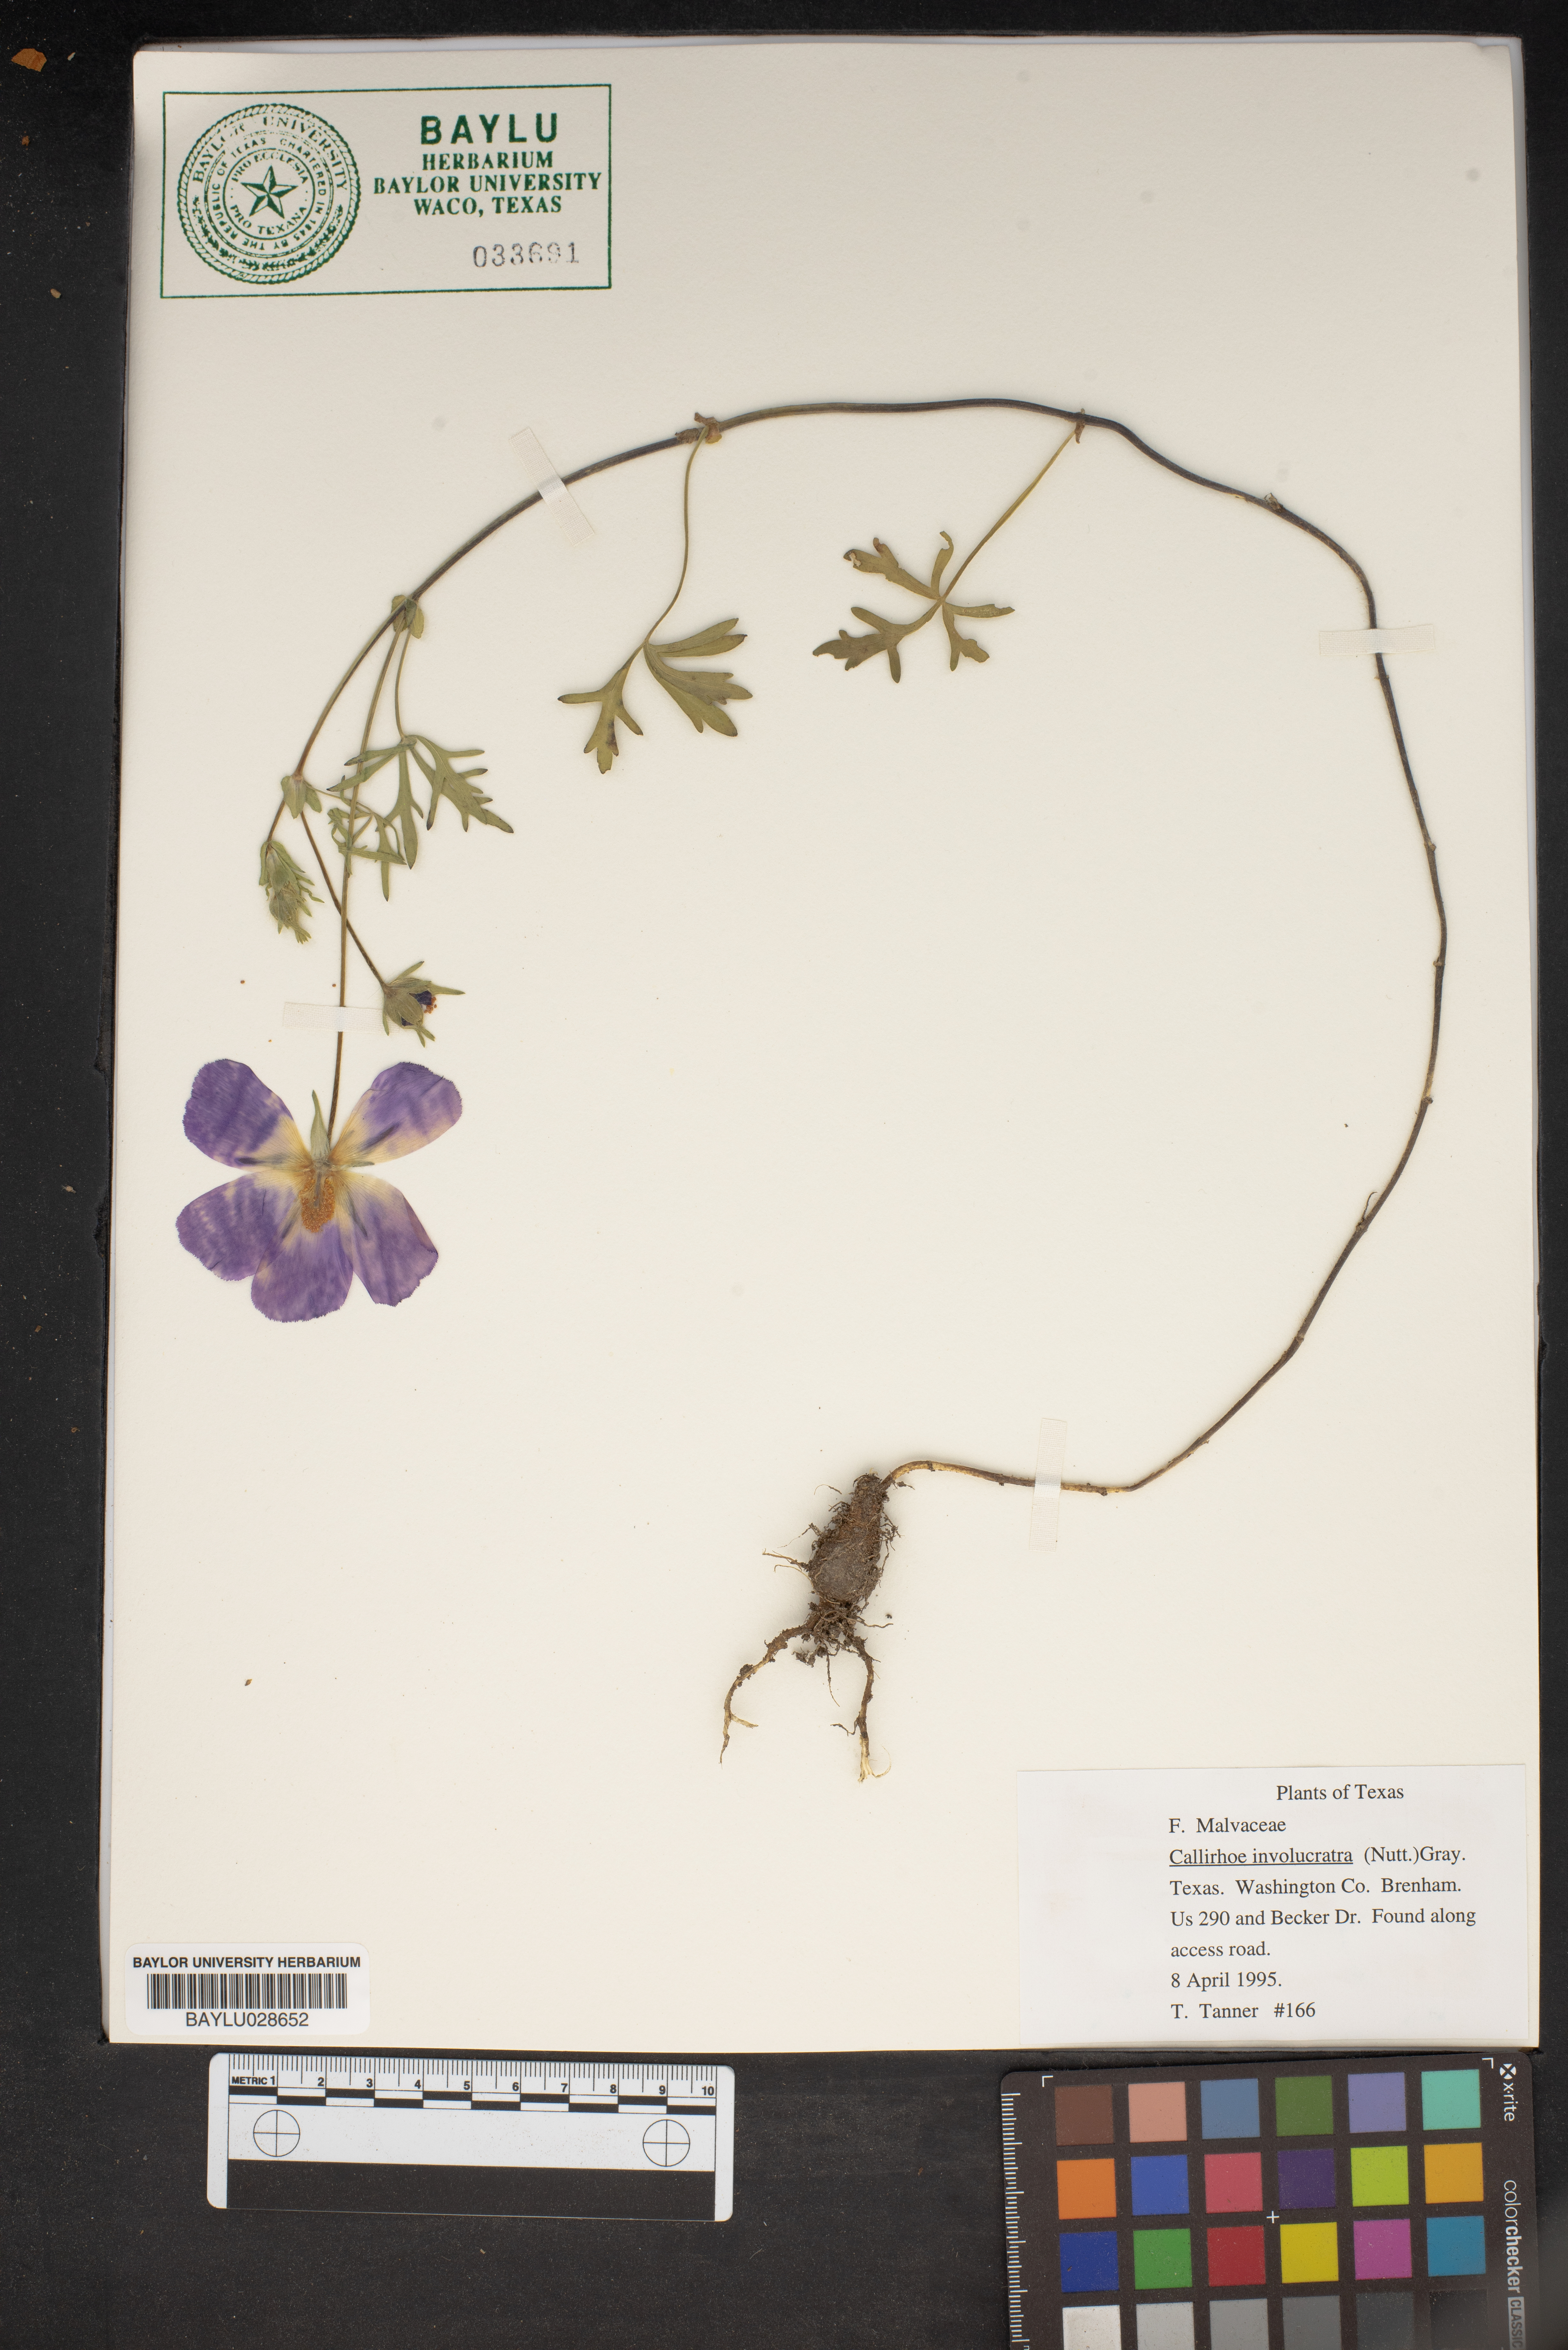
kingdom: Plantae
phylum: Tracheophyta
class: Magnoliopsida
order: Malvales
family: Malvaceae
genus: Callirhoe
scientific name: Callirhoe involucrata
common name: Purple poppy-mallow
